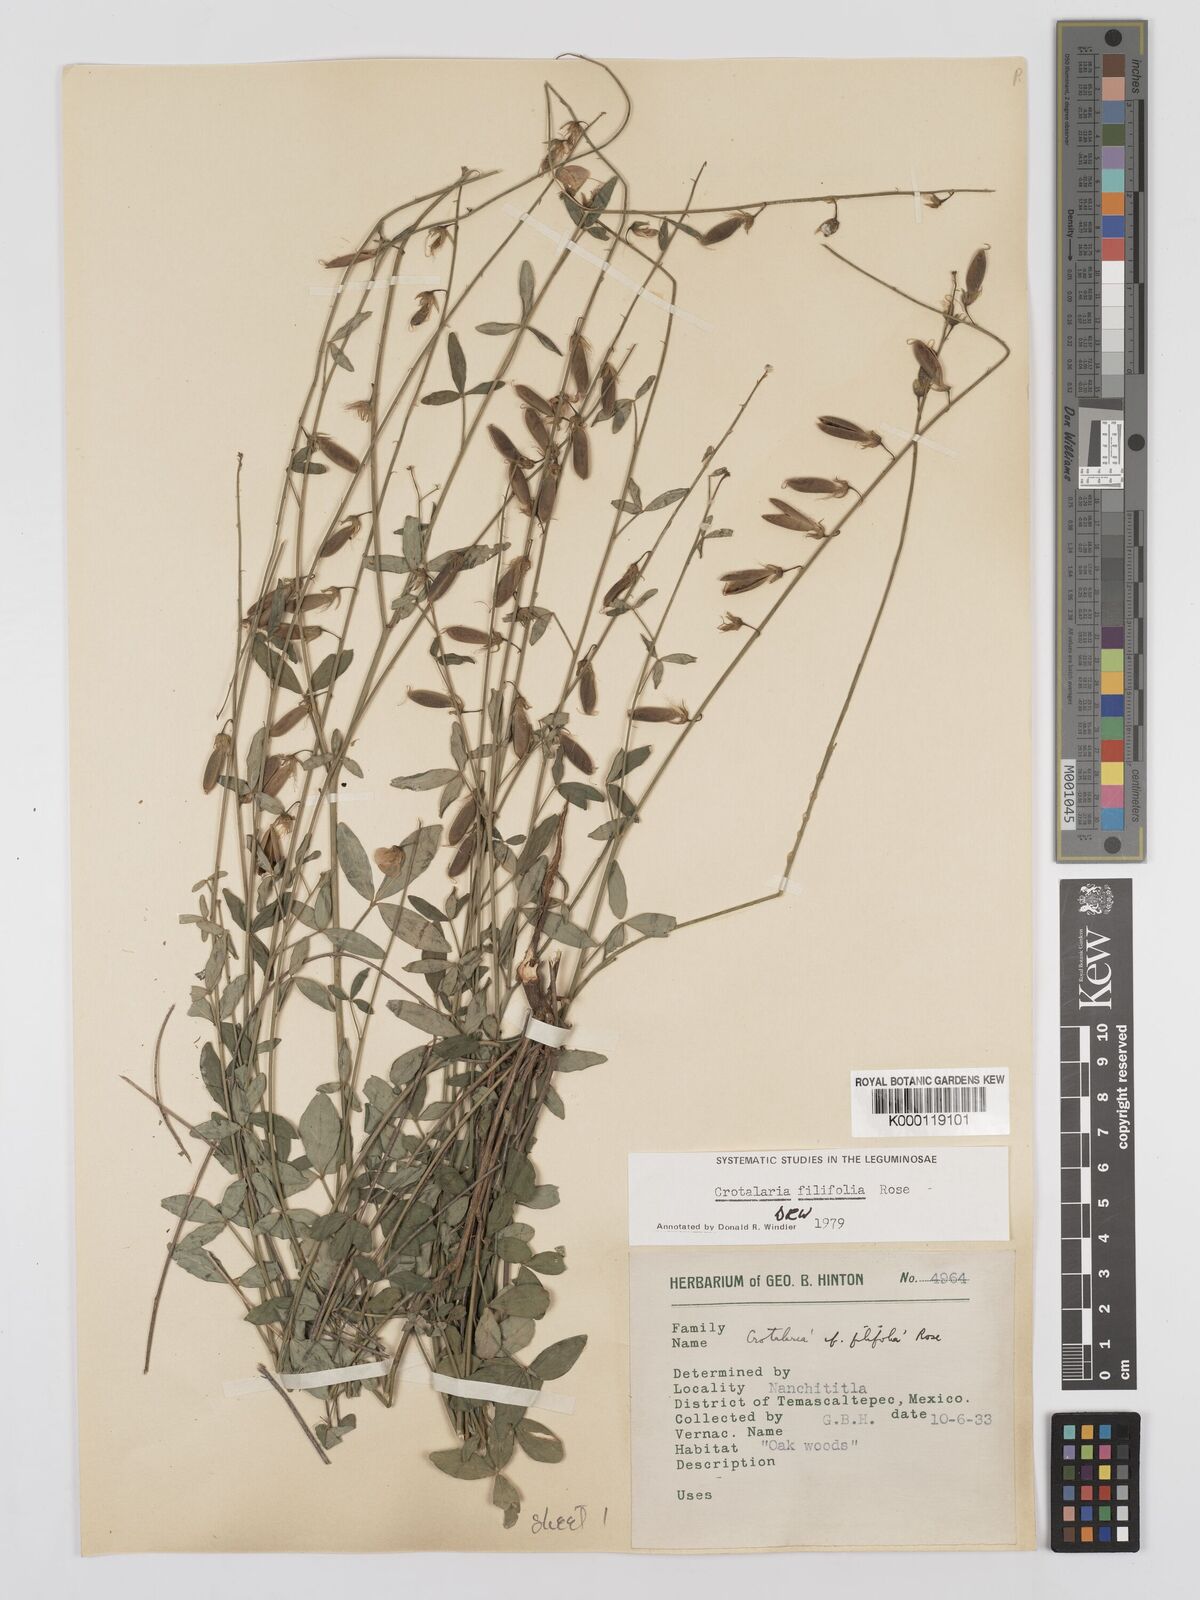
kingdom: Plantae
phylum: Tracheophyta
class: Magnoliopsida
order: Fabales
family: Fabaceae
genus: Crotalaria
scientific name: Crotalaria filifolia
